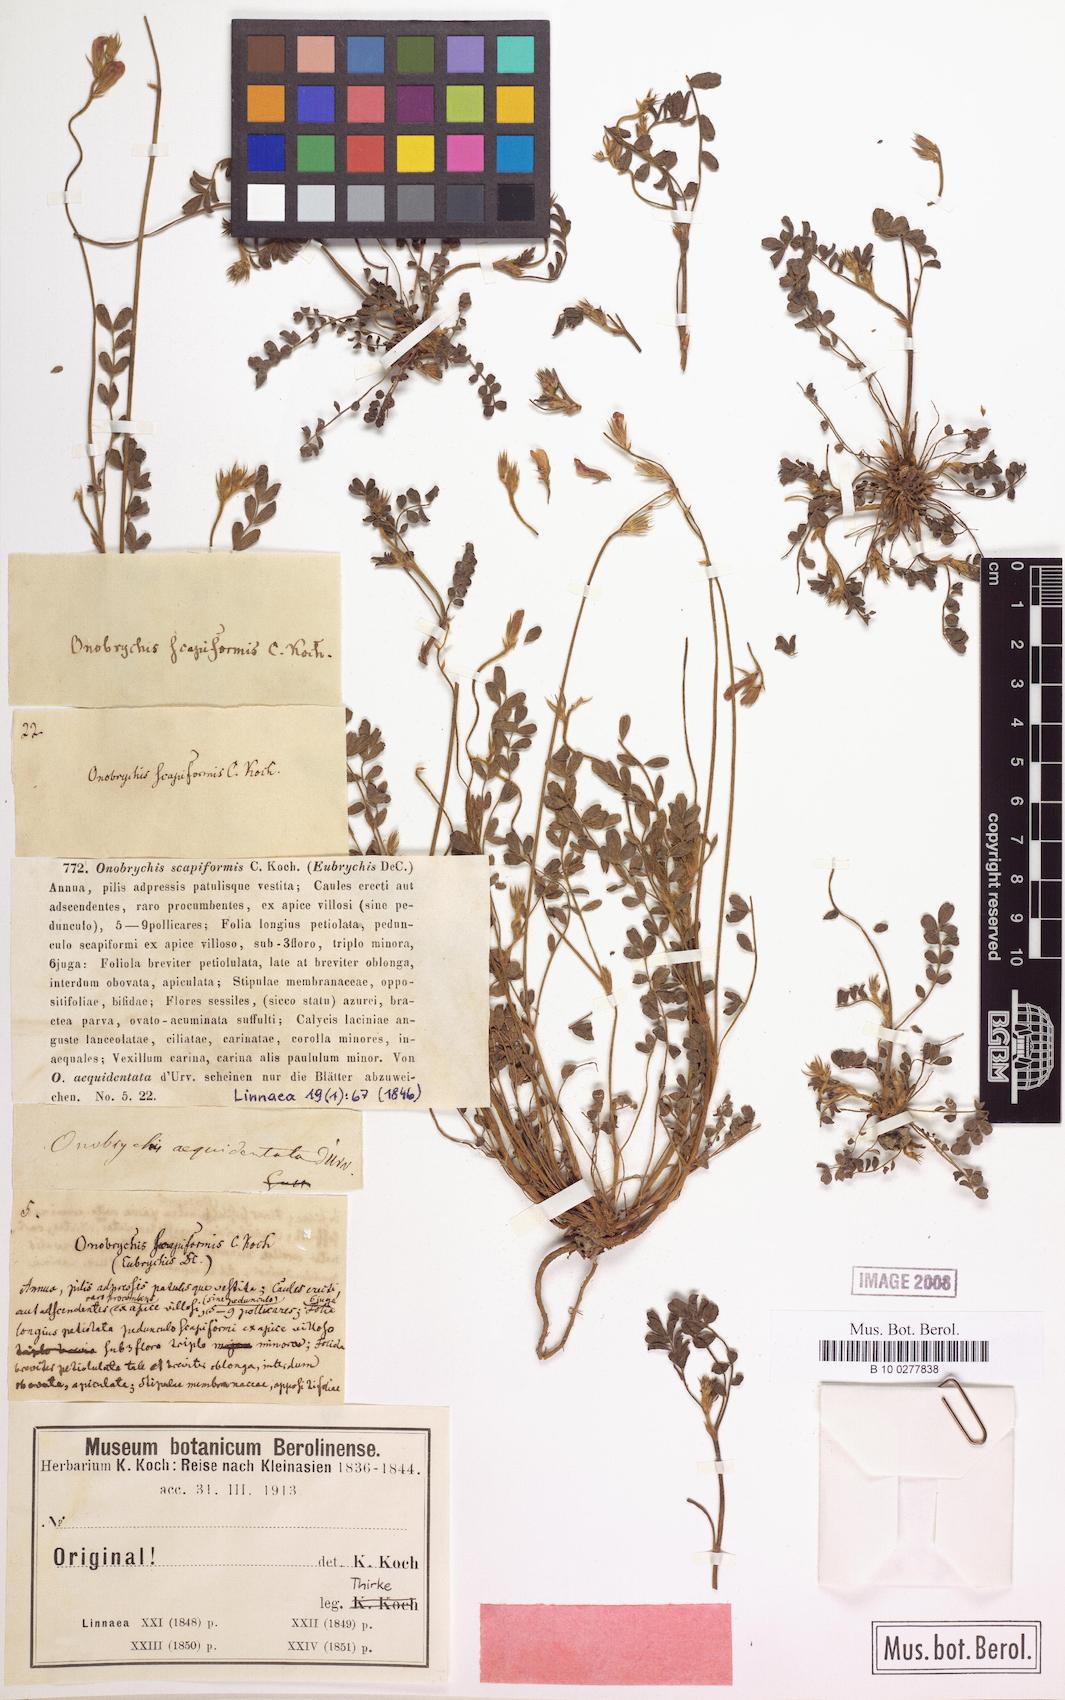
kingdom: Plantae
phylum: Tracheophyta
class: Magnoliopsida
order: Fabales
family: Fabaceae
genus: Onobrychis
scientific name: Onobrychis aequidentata
